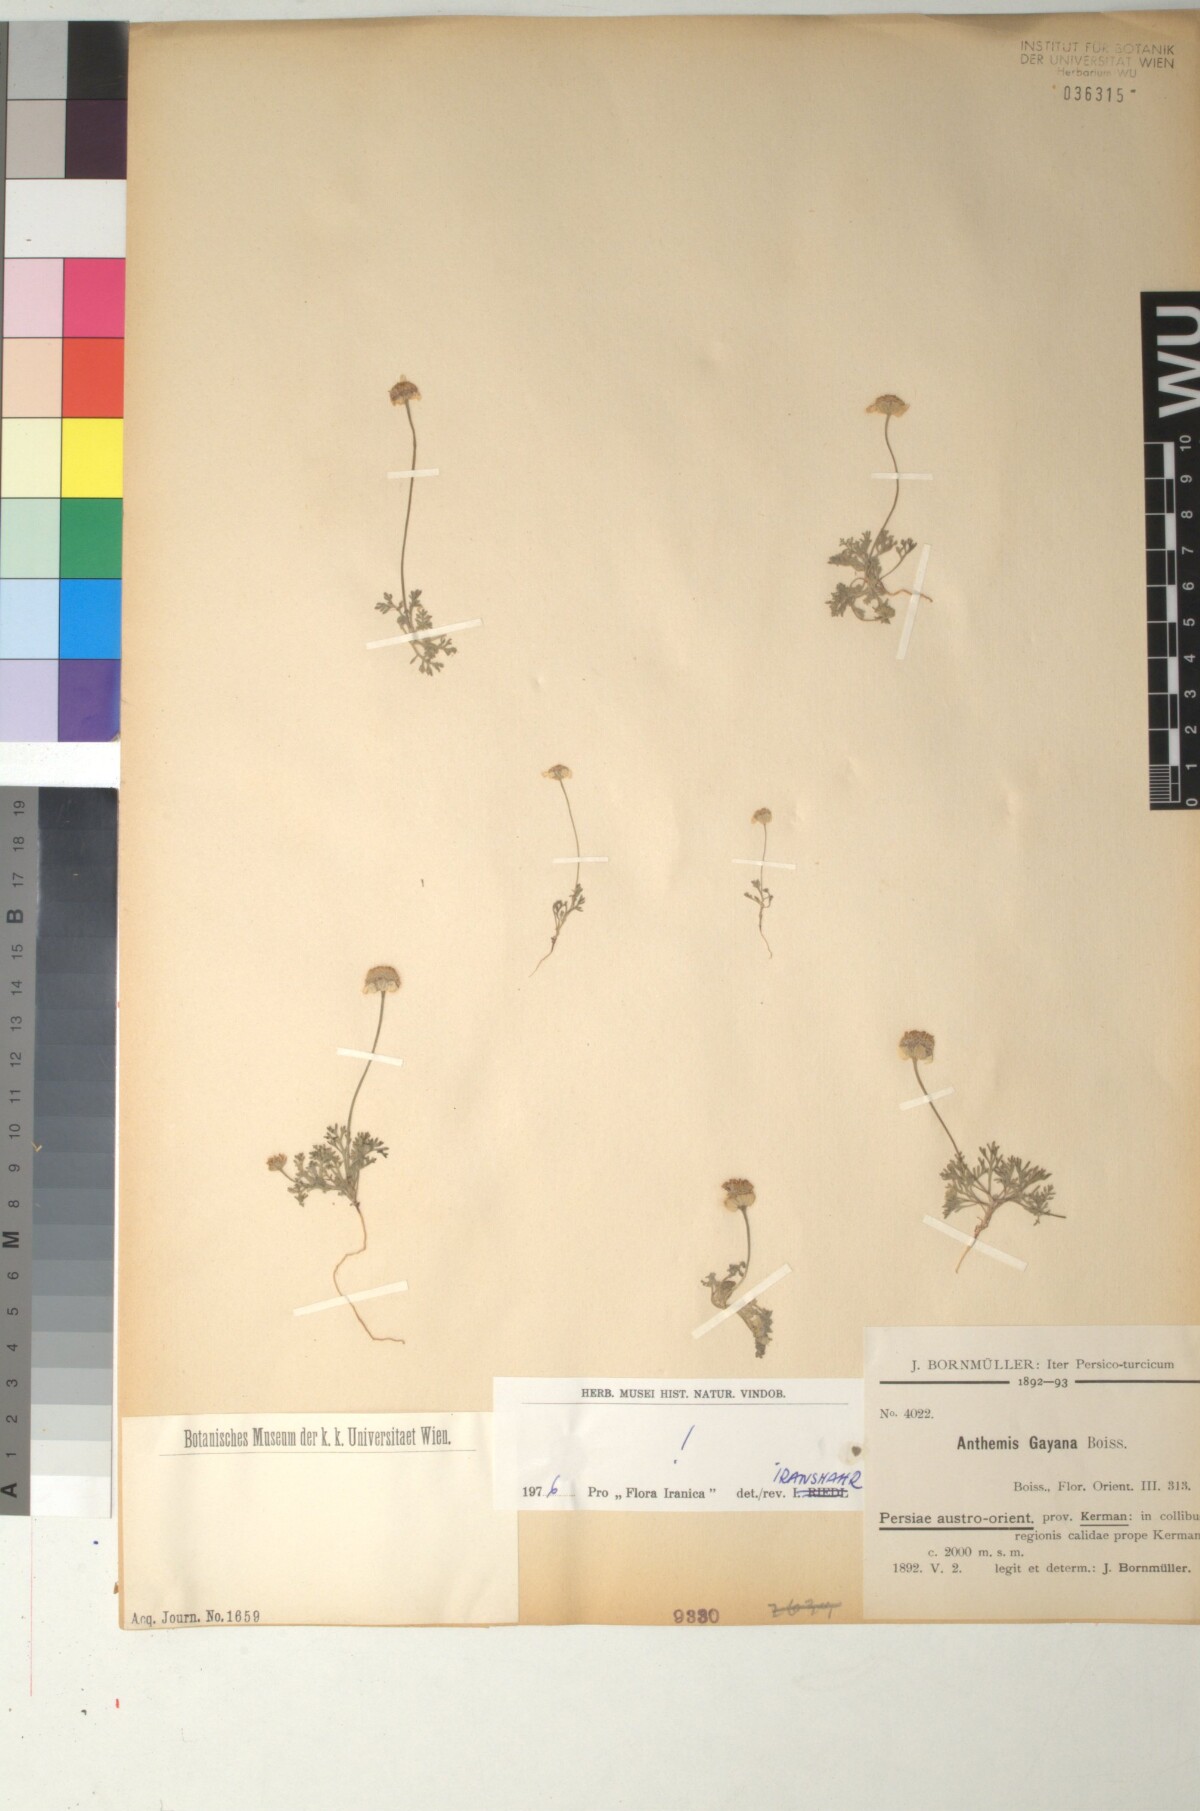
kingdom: Plantae
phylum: Tracheophyta
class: Magnoliopsida
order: Asterales
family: Asteraceae
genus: Anthemis
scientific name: Anthemis gayana
